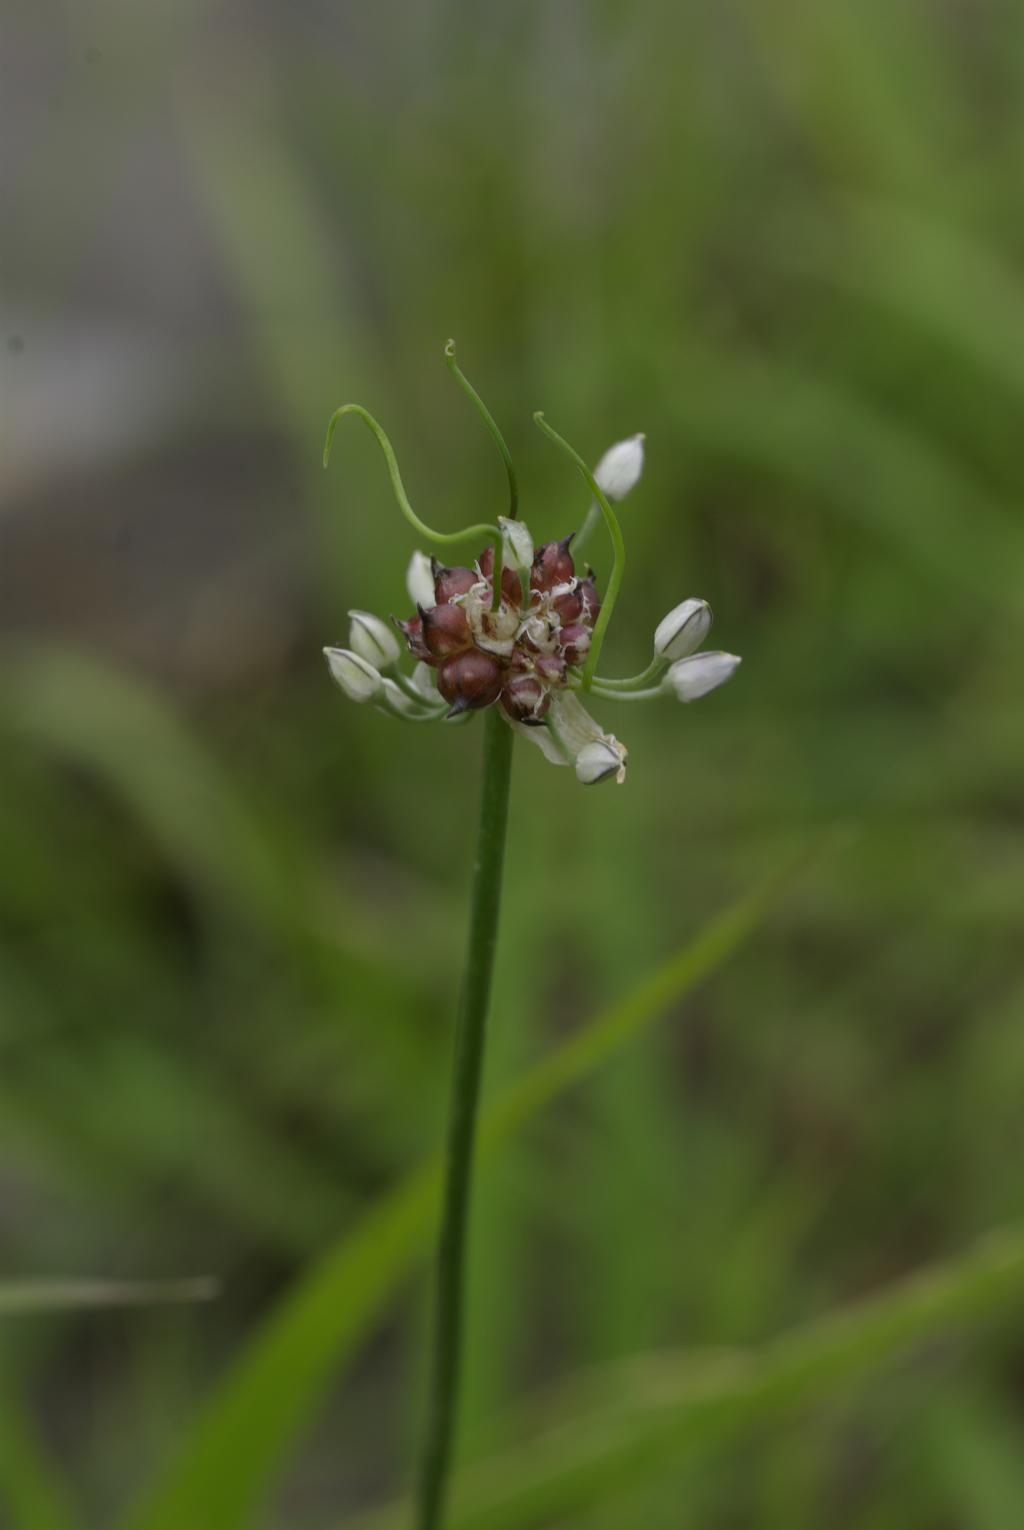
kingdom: Plantae
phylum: Tracheophyta
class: Liliopsida
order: Asparagales
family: Amaryllidaceae
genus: Allium
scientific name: Allium macrostemon
